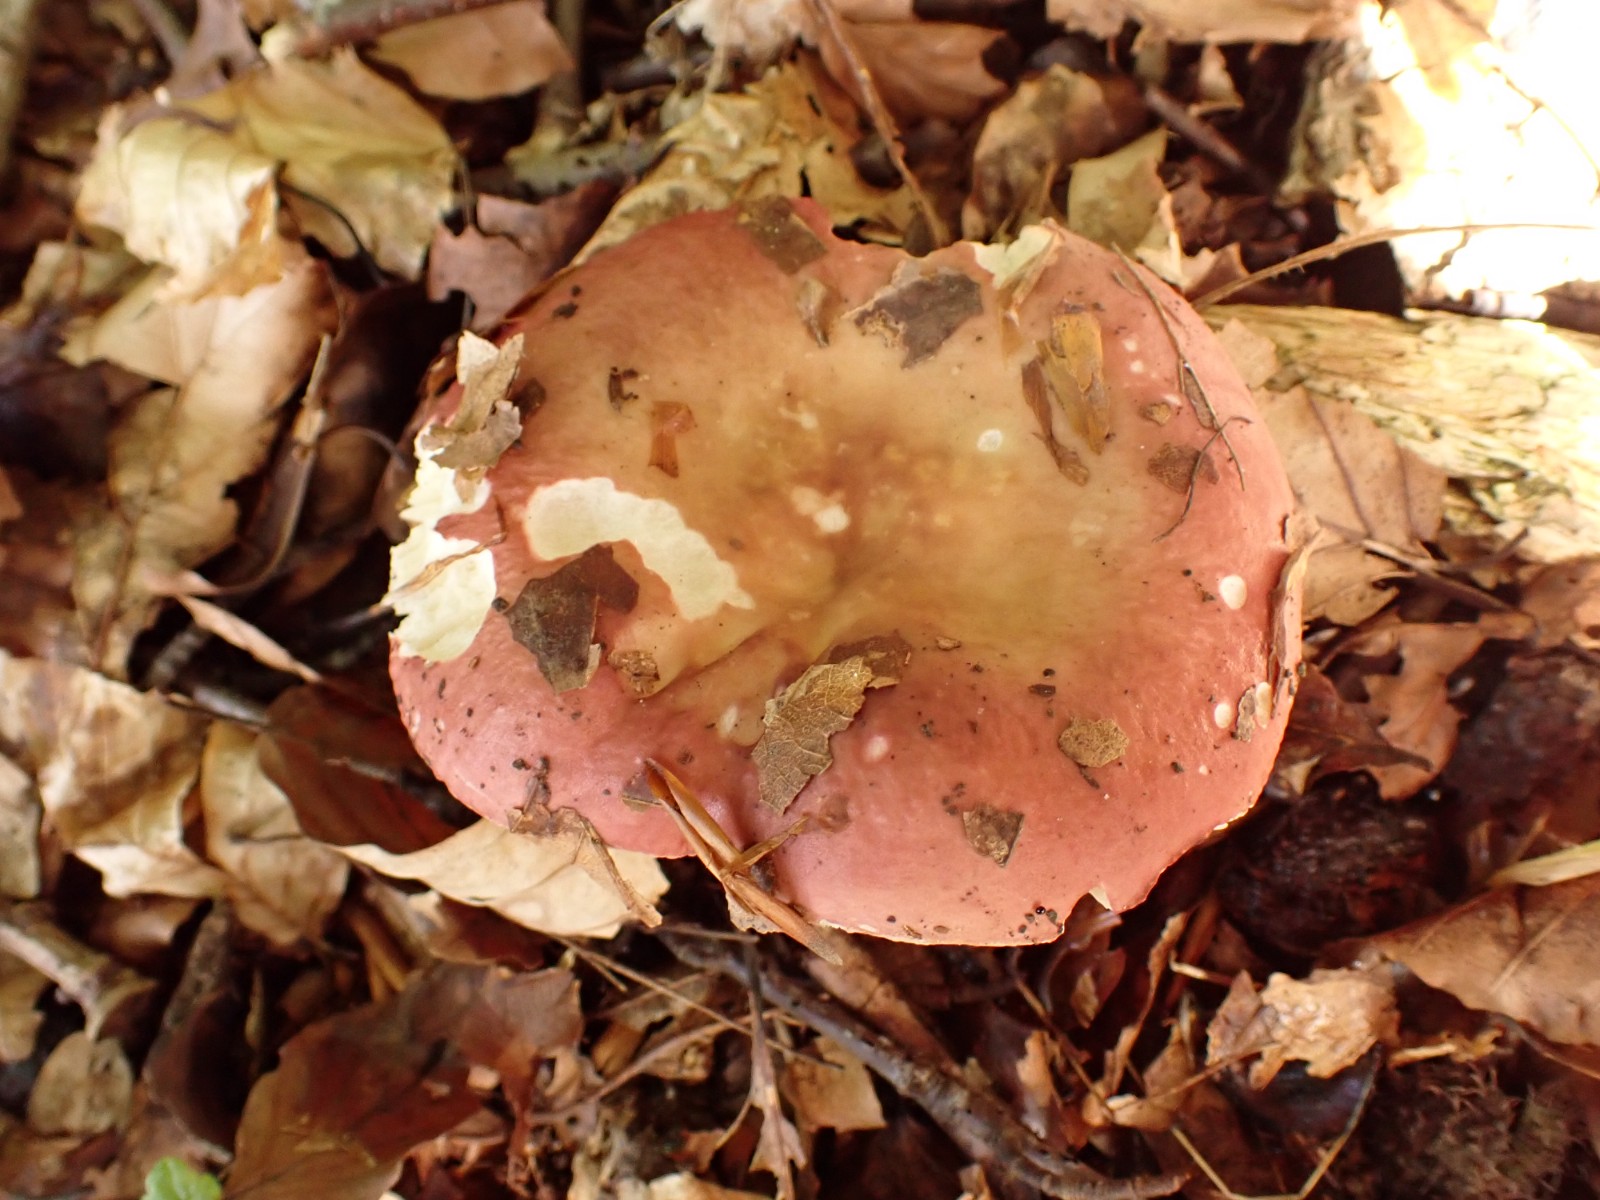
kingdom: Fungi
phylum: Basidiomycota
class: Agaricomycetes
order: Russulales
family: Russulaceae
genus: Russula
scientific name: Russula maculata
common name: plettet skørhat
